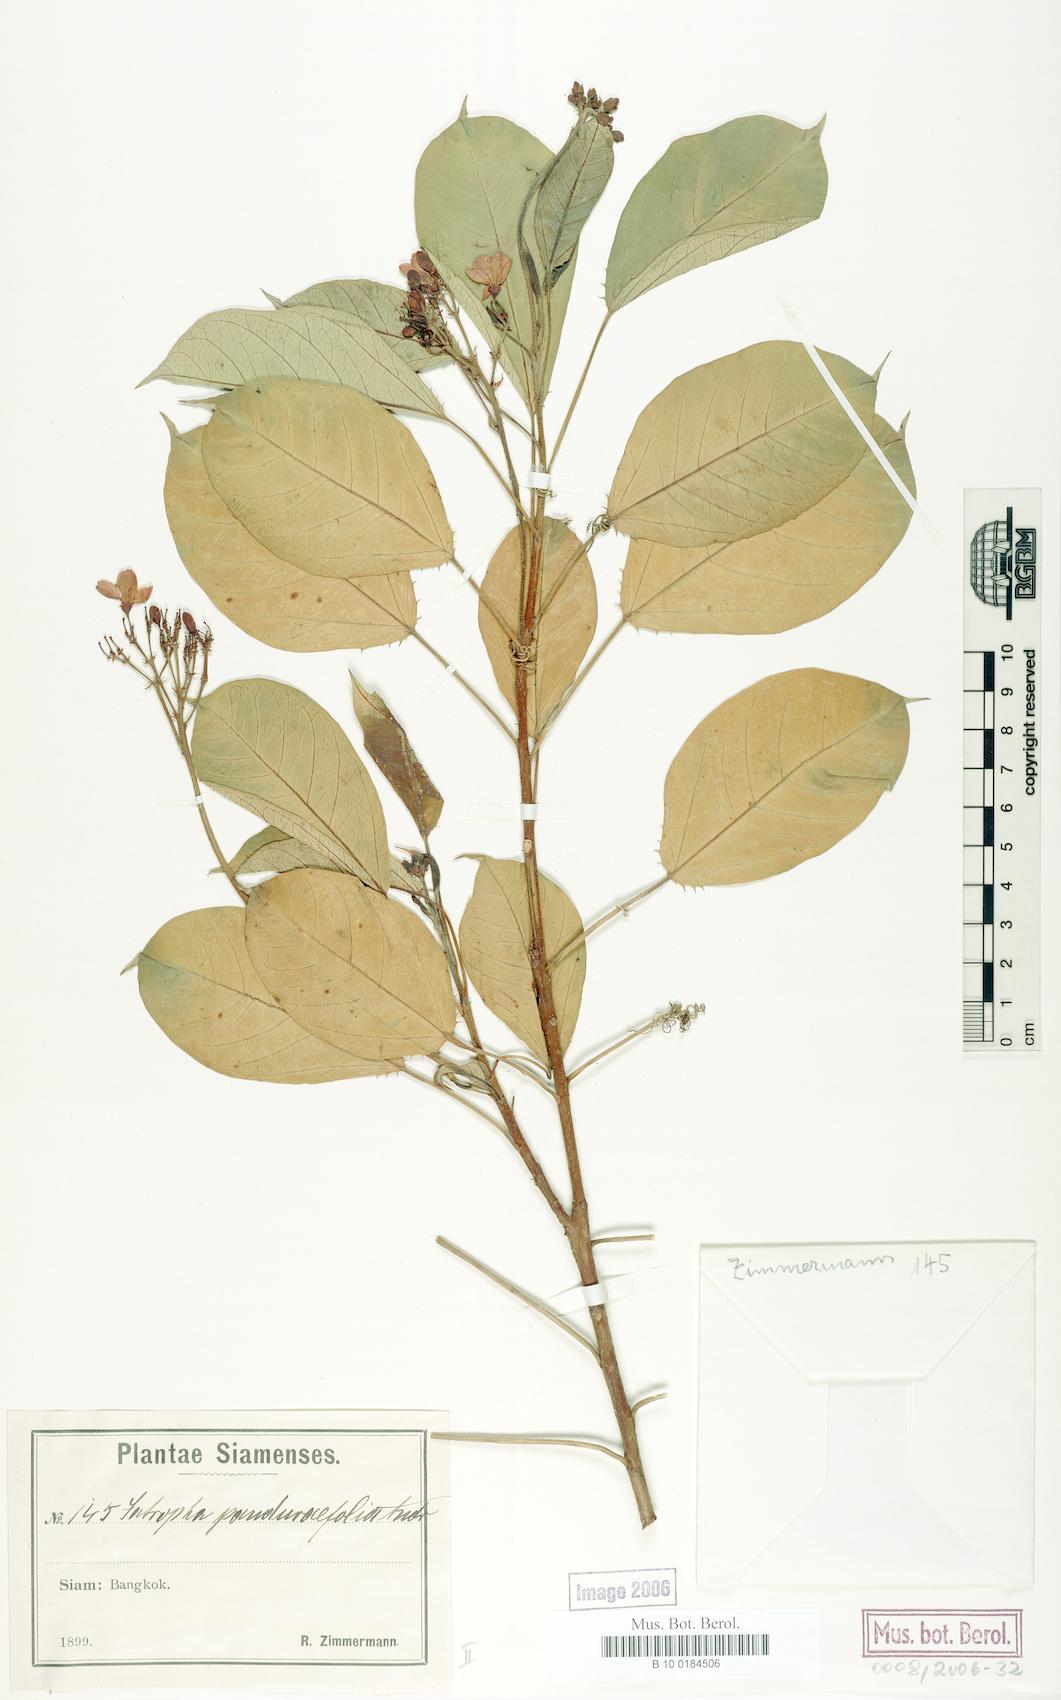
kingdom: Plantae
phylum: Tracheophyta
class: Magnoliopsida
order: Malpighiales
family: Euphorbiaceae
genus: Jatropha
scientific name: Jatropha integerrima
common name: Peregrina
